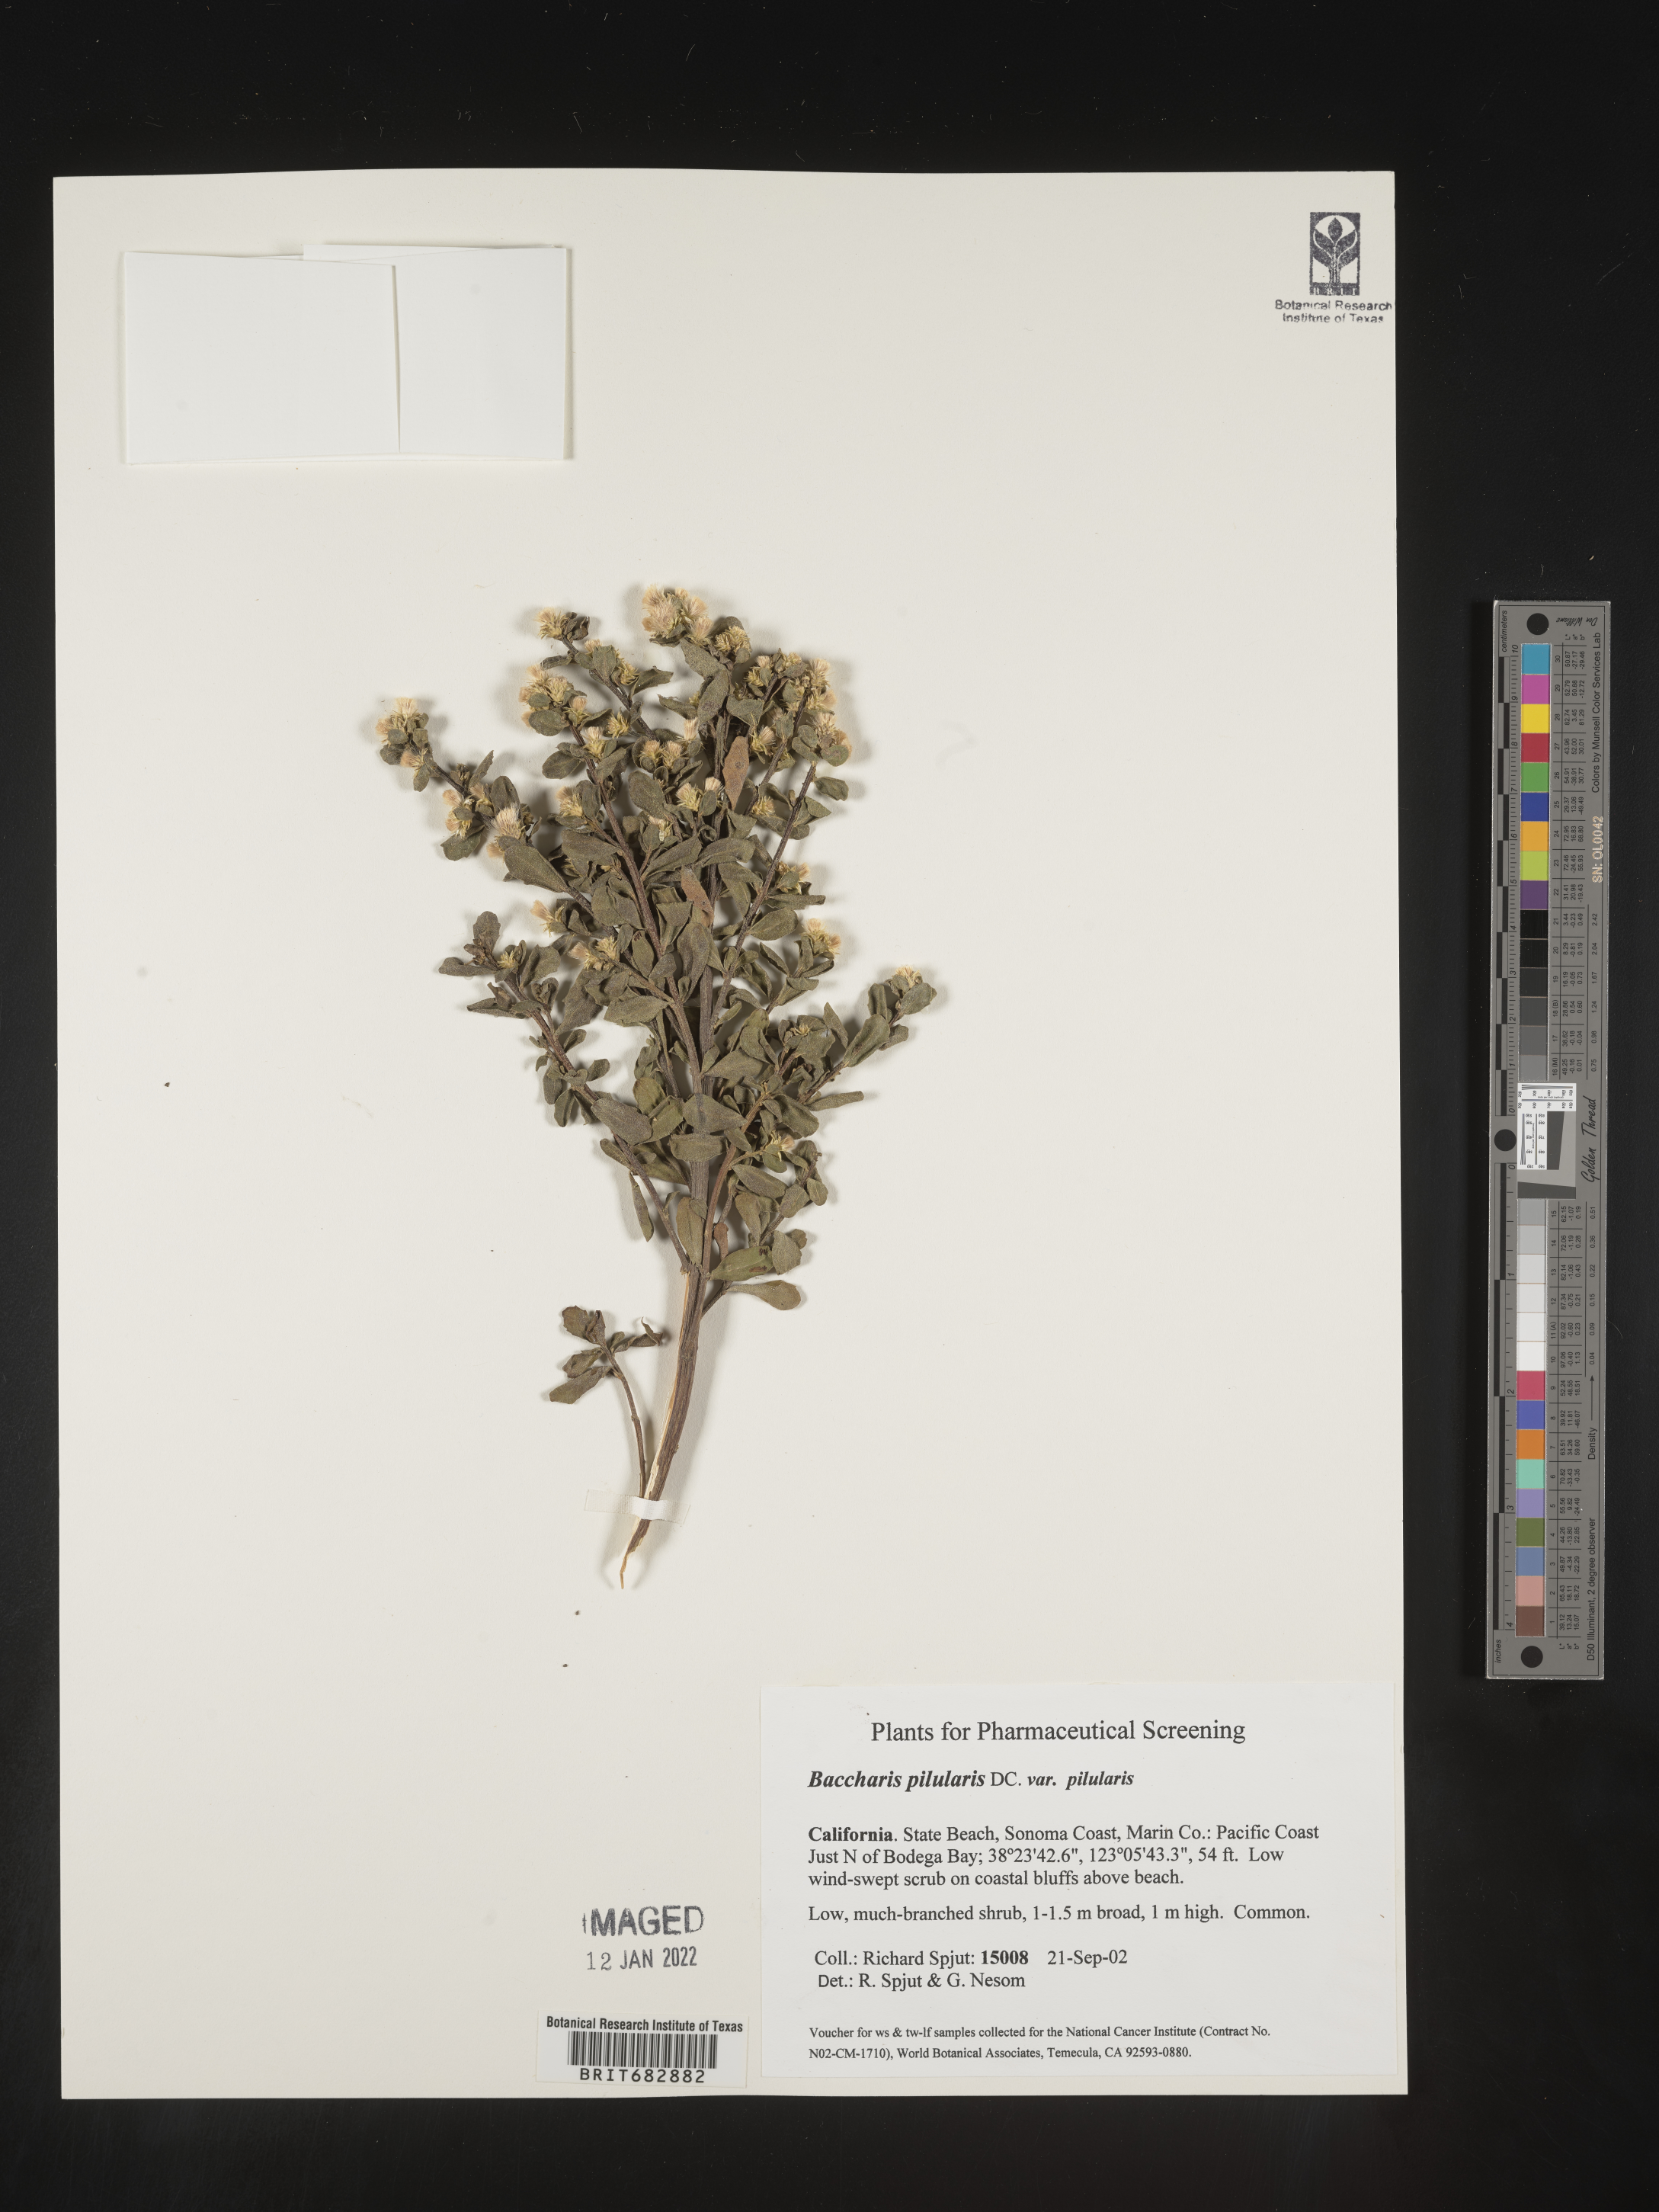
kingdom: Plantae
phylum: Tracheophyta
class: Magnoliopsida
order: Asterales
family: Asteraceae
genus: Baccharis
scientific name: Baccharis pilularis
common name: Coyotebrush
